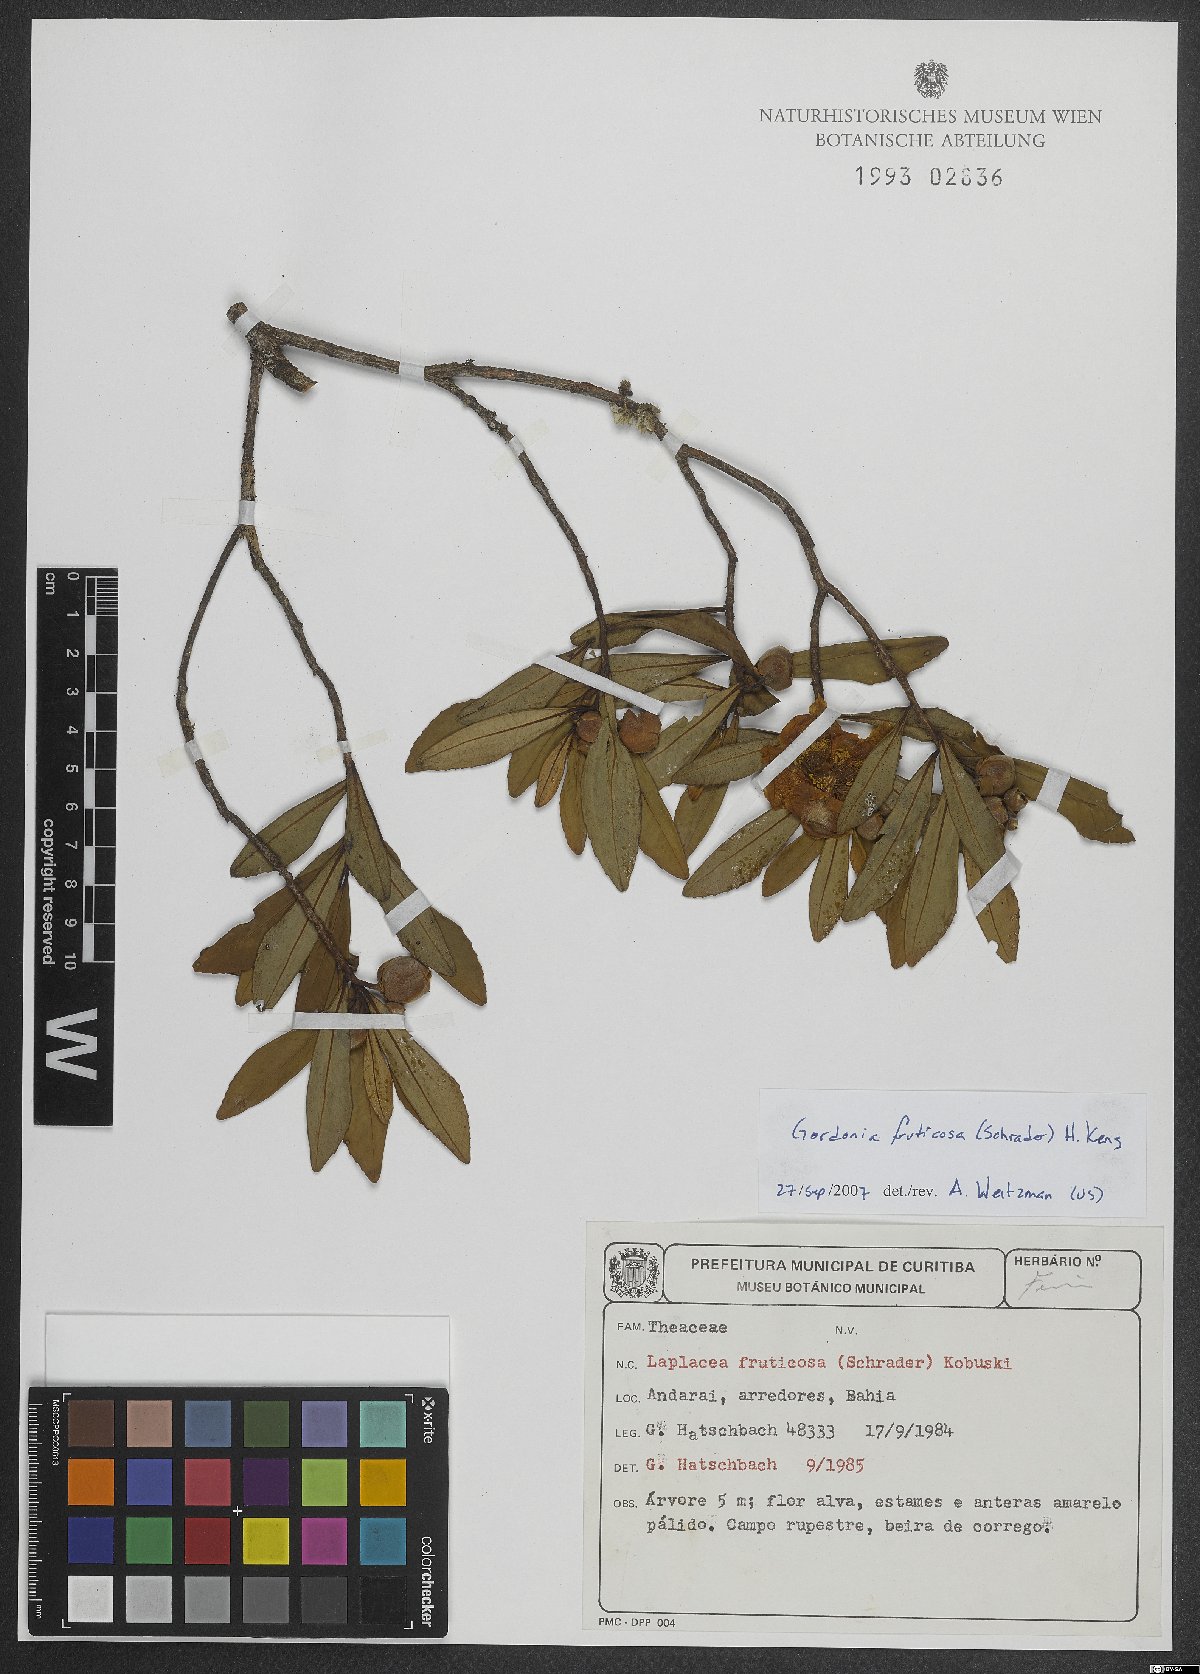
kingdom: Plantae
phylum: Tracheophyta
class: Magnoliopsida
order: Ericales
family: Theaceae
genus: Gordonia
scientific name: Gordonia fruticosa
